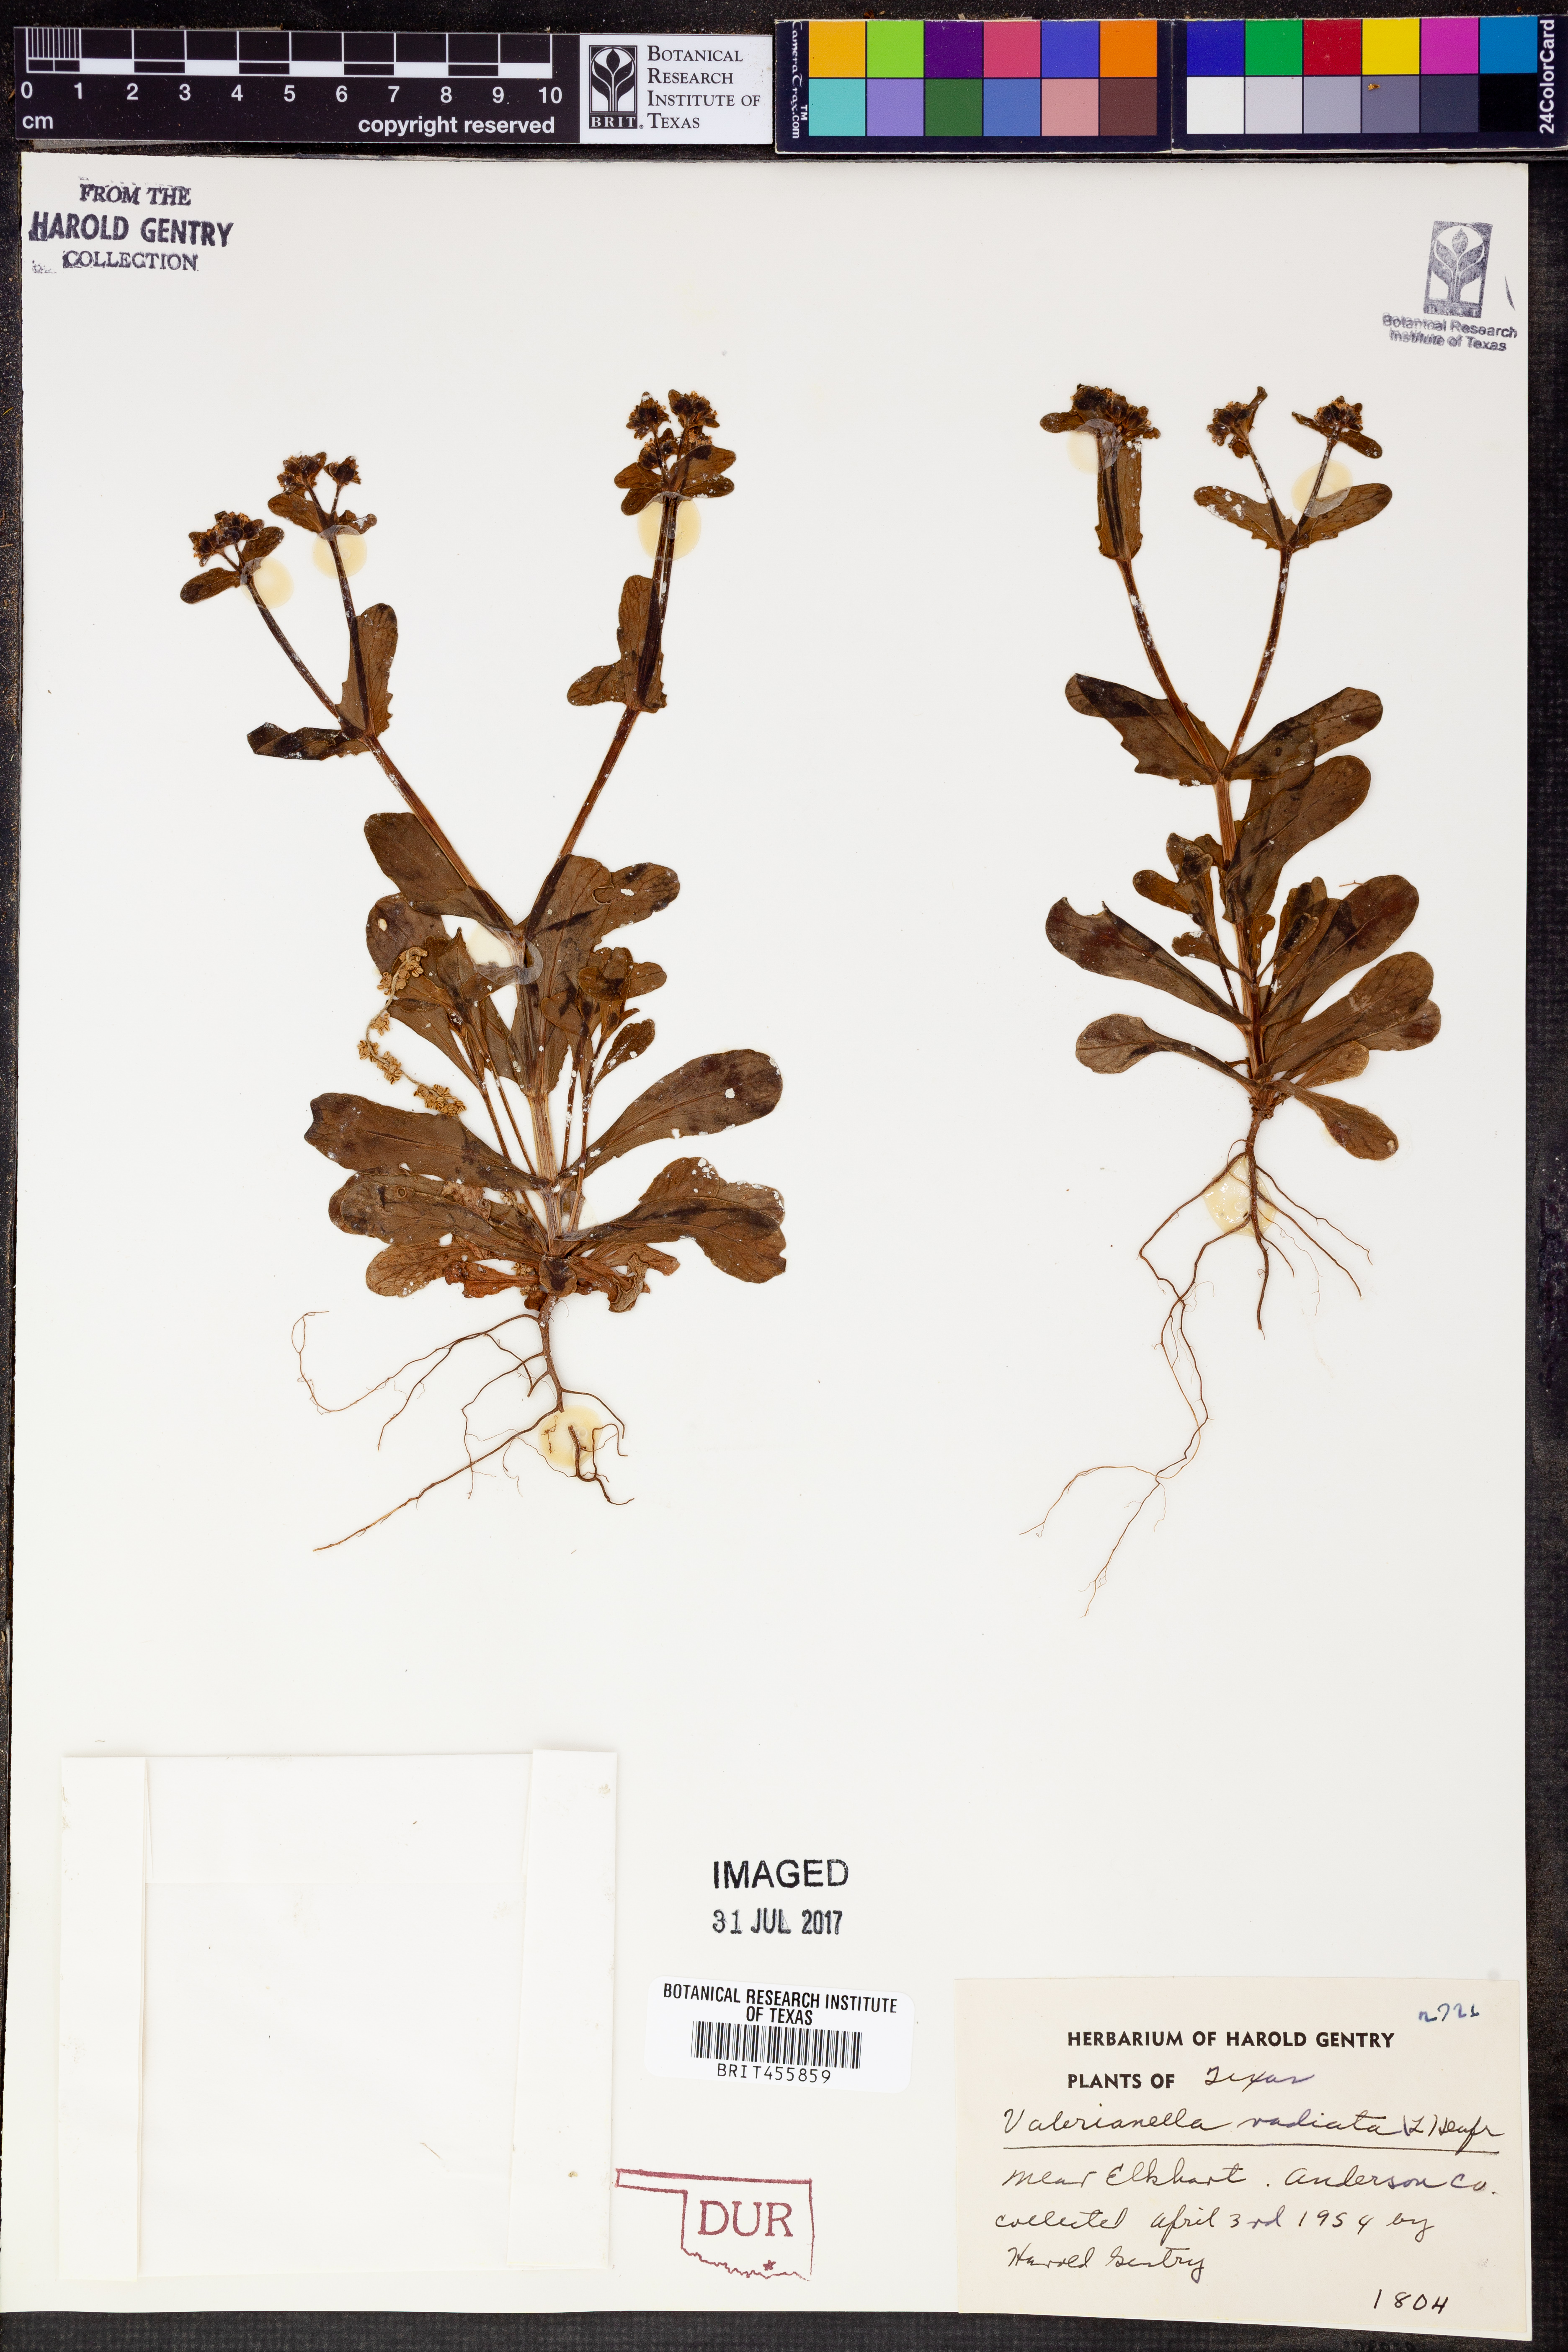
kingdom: Plantae
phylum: Tracheophyta
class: Magnoliopsida
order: Dipsacales
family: Caprifoliaceae
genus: Valerianella
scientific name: Valerianella radiata
